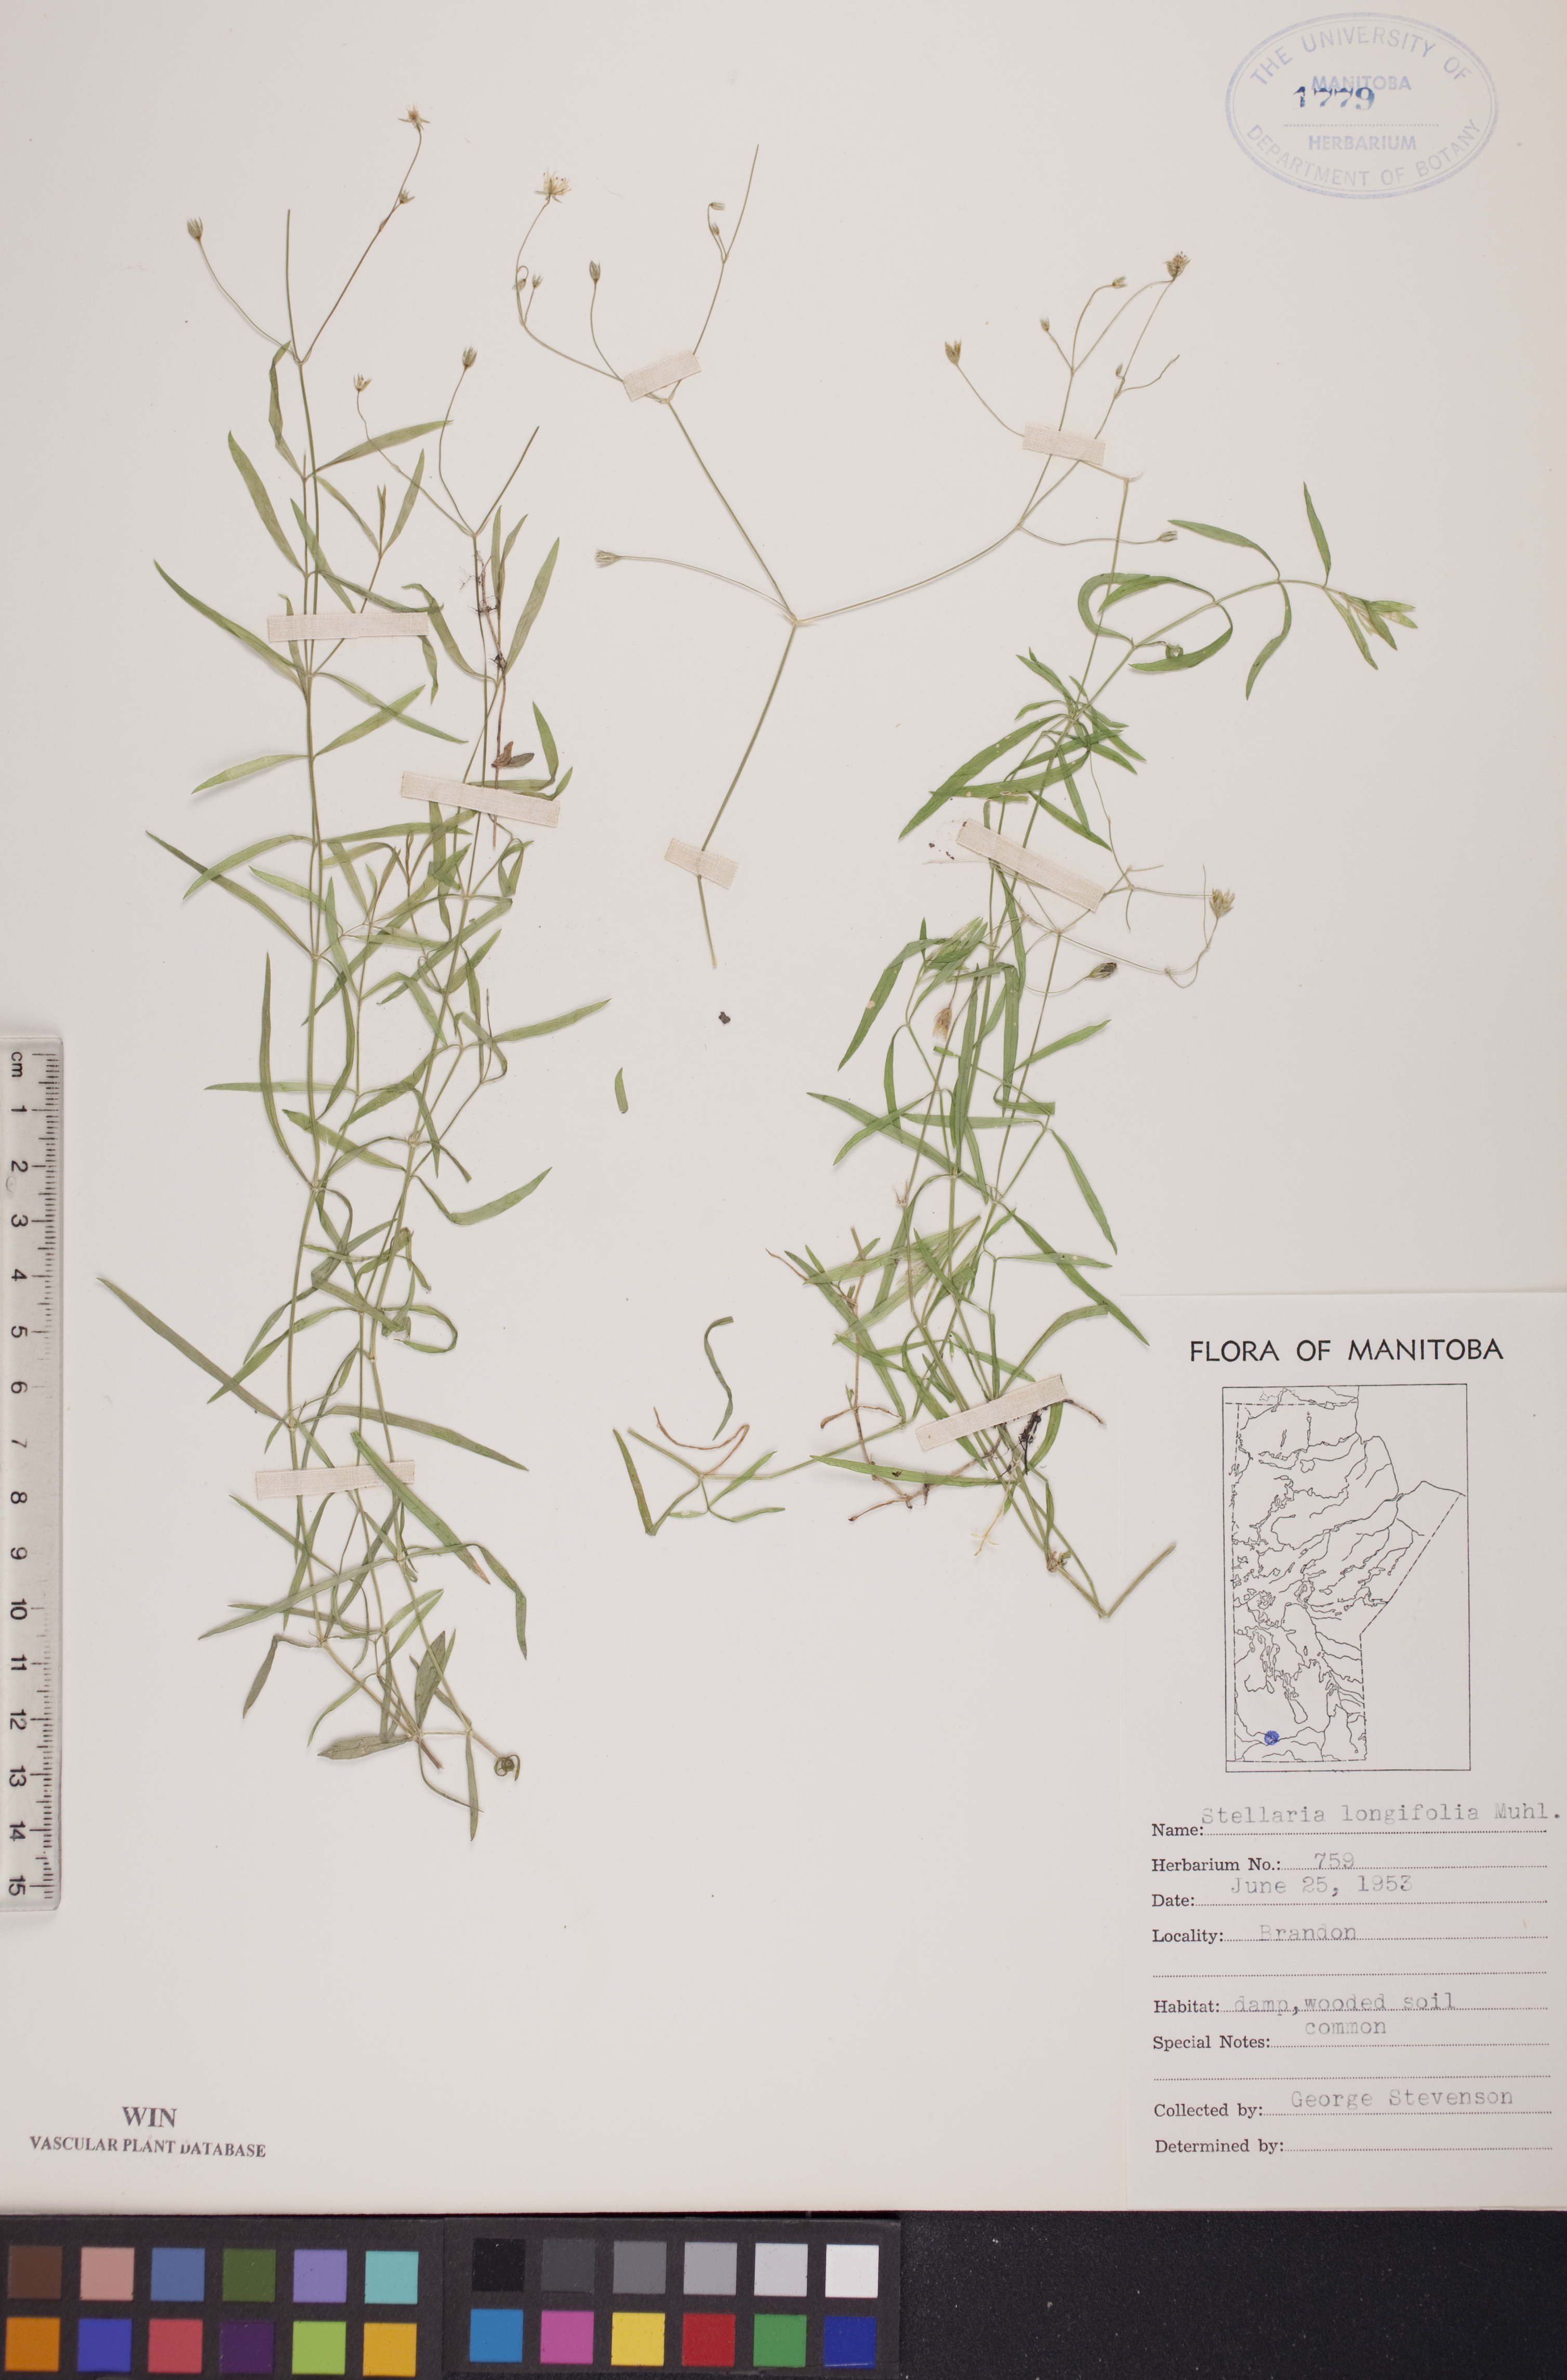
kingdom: Plantae
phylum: Tracheophyta
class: Magnoliopsida
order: Caryophyllales
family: Caryophyllaceae
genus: Stellaria
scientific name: Stellaria longifolia
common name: Long-leaved chickweed
